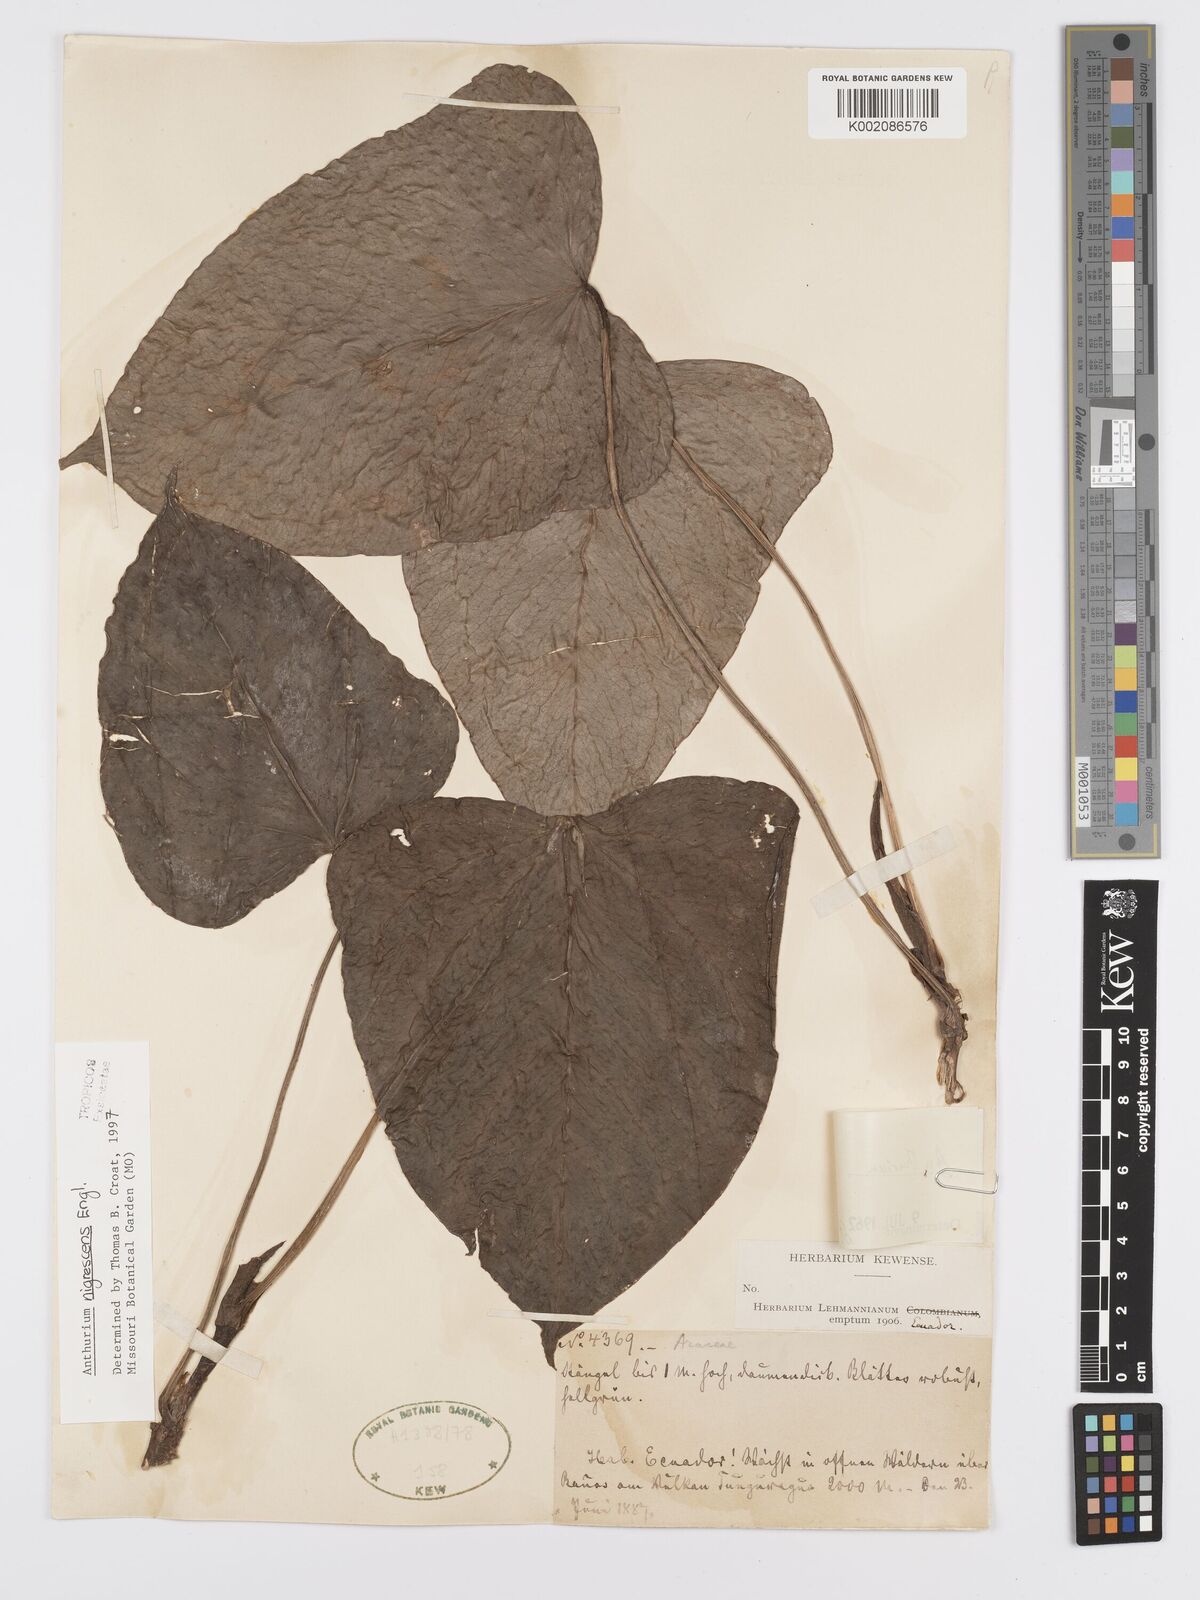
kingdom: Plantae
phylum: Tracheophyta
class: Liliopsida
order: Alismatales
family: Araceae
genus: Anthurium
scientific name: Anthurium nigrescens
